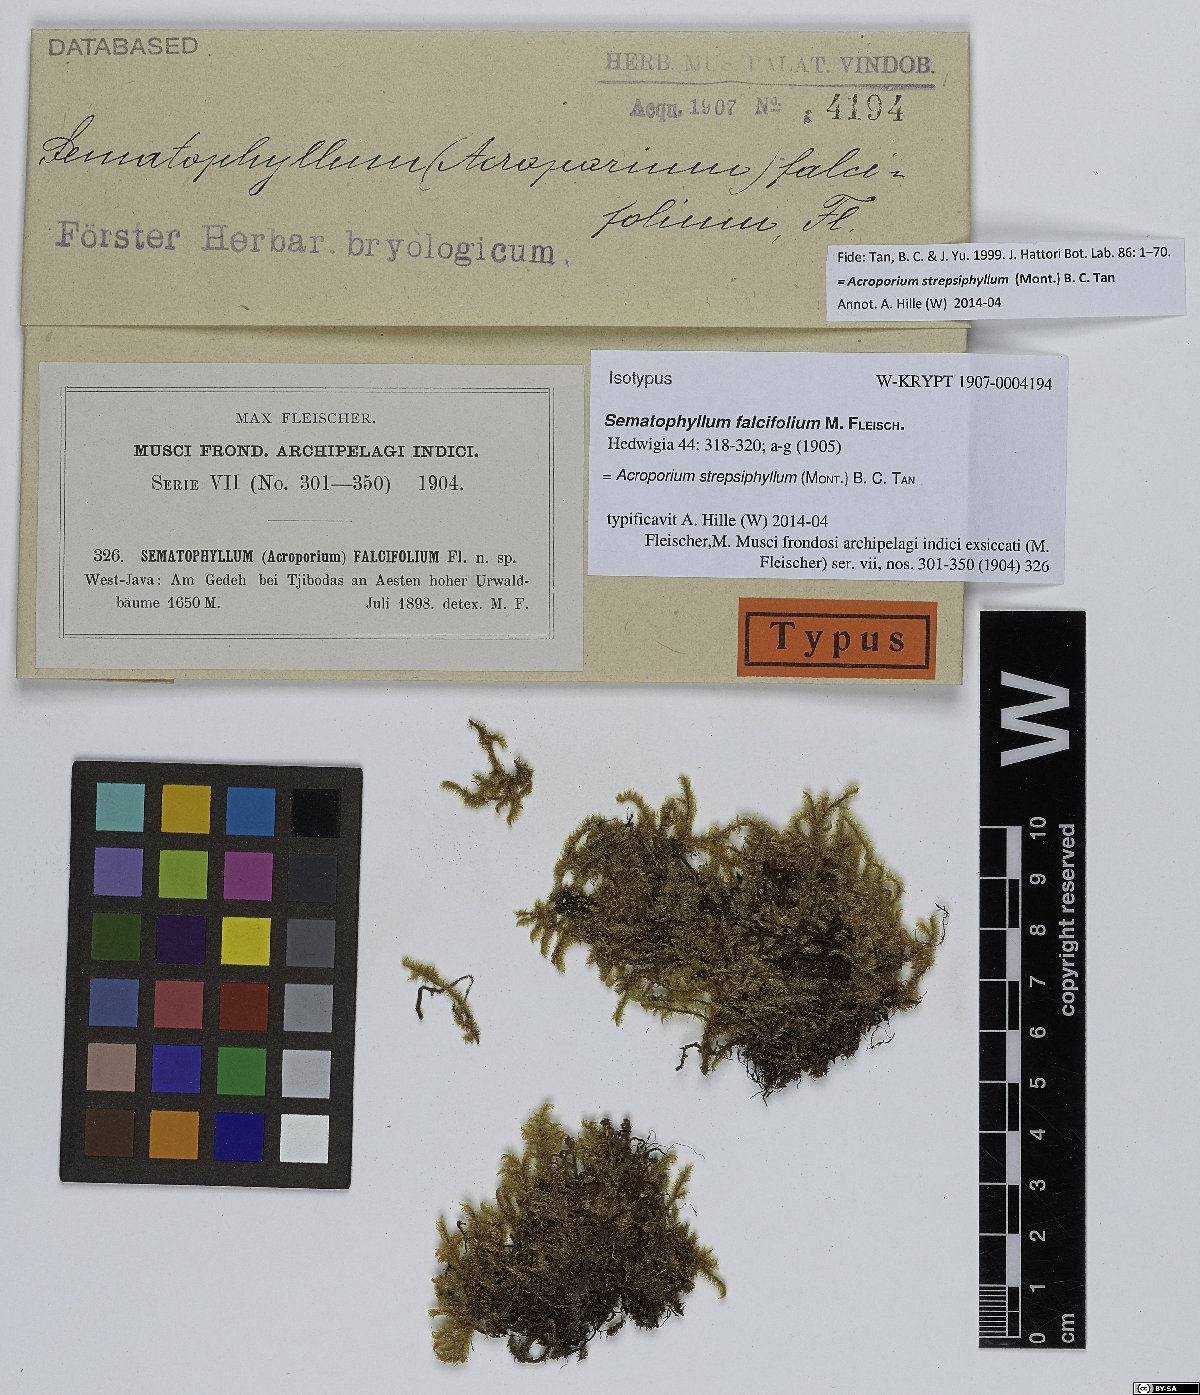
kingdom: Plantae
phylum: Bryophyta
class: Bryopsida
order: Hypnales
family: Sematophyllaceae
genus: Acroporium
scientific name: Acroporium strepsiphyllum
